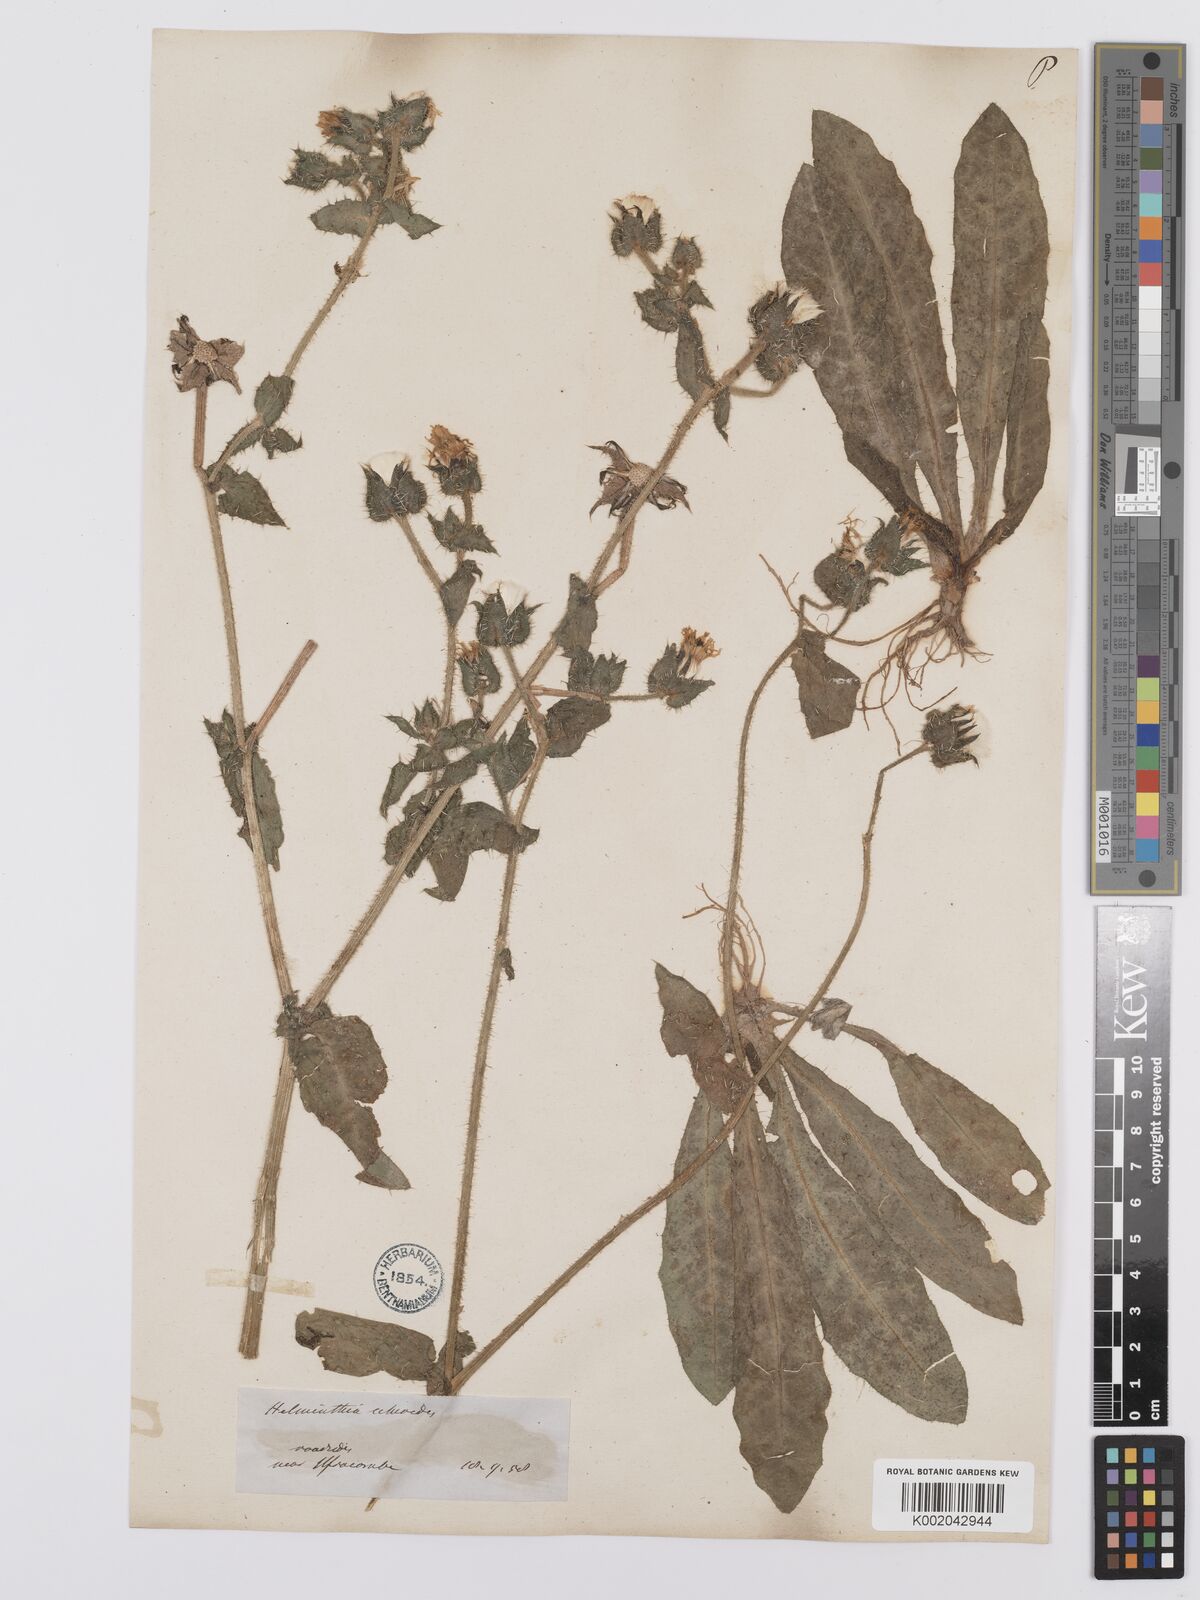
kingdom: Plantae
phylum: Tracheophyta
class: Magnoliopsida
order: Asterales
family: Asteraceae
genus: Helminthotheca
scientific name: Helminthotheca echioides
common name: Ox-tongue
